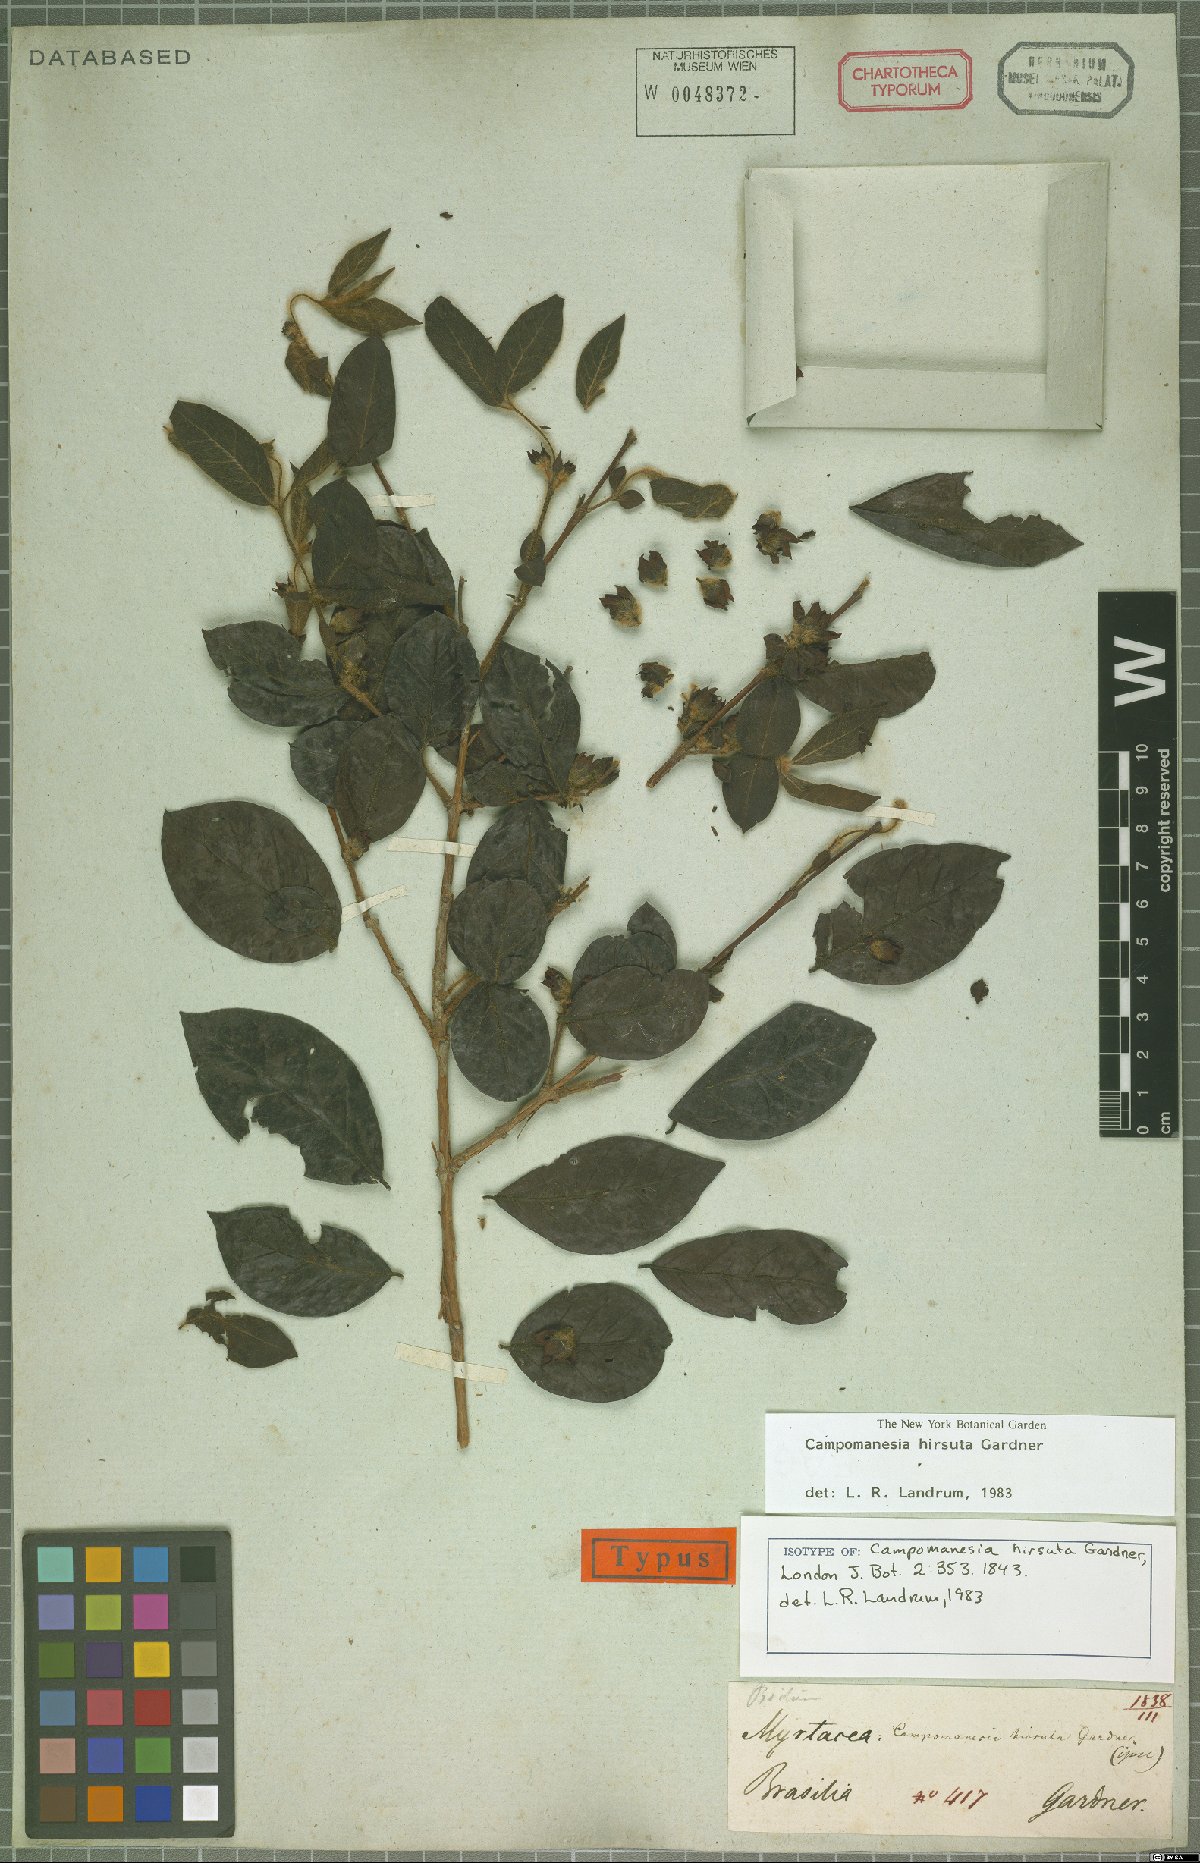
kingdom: Plantae
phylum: Tracheophyta
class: Magnoliopsida
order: Myrtales
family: Myrtaceae
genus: Campomanesia
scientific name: Campomanesia hirsuta
